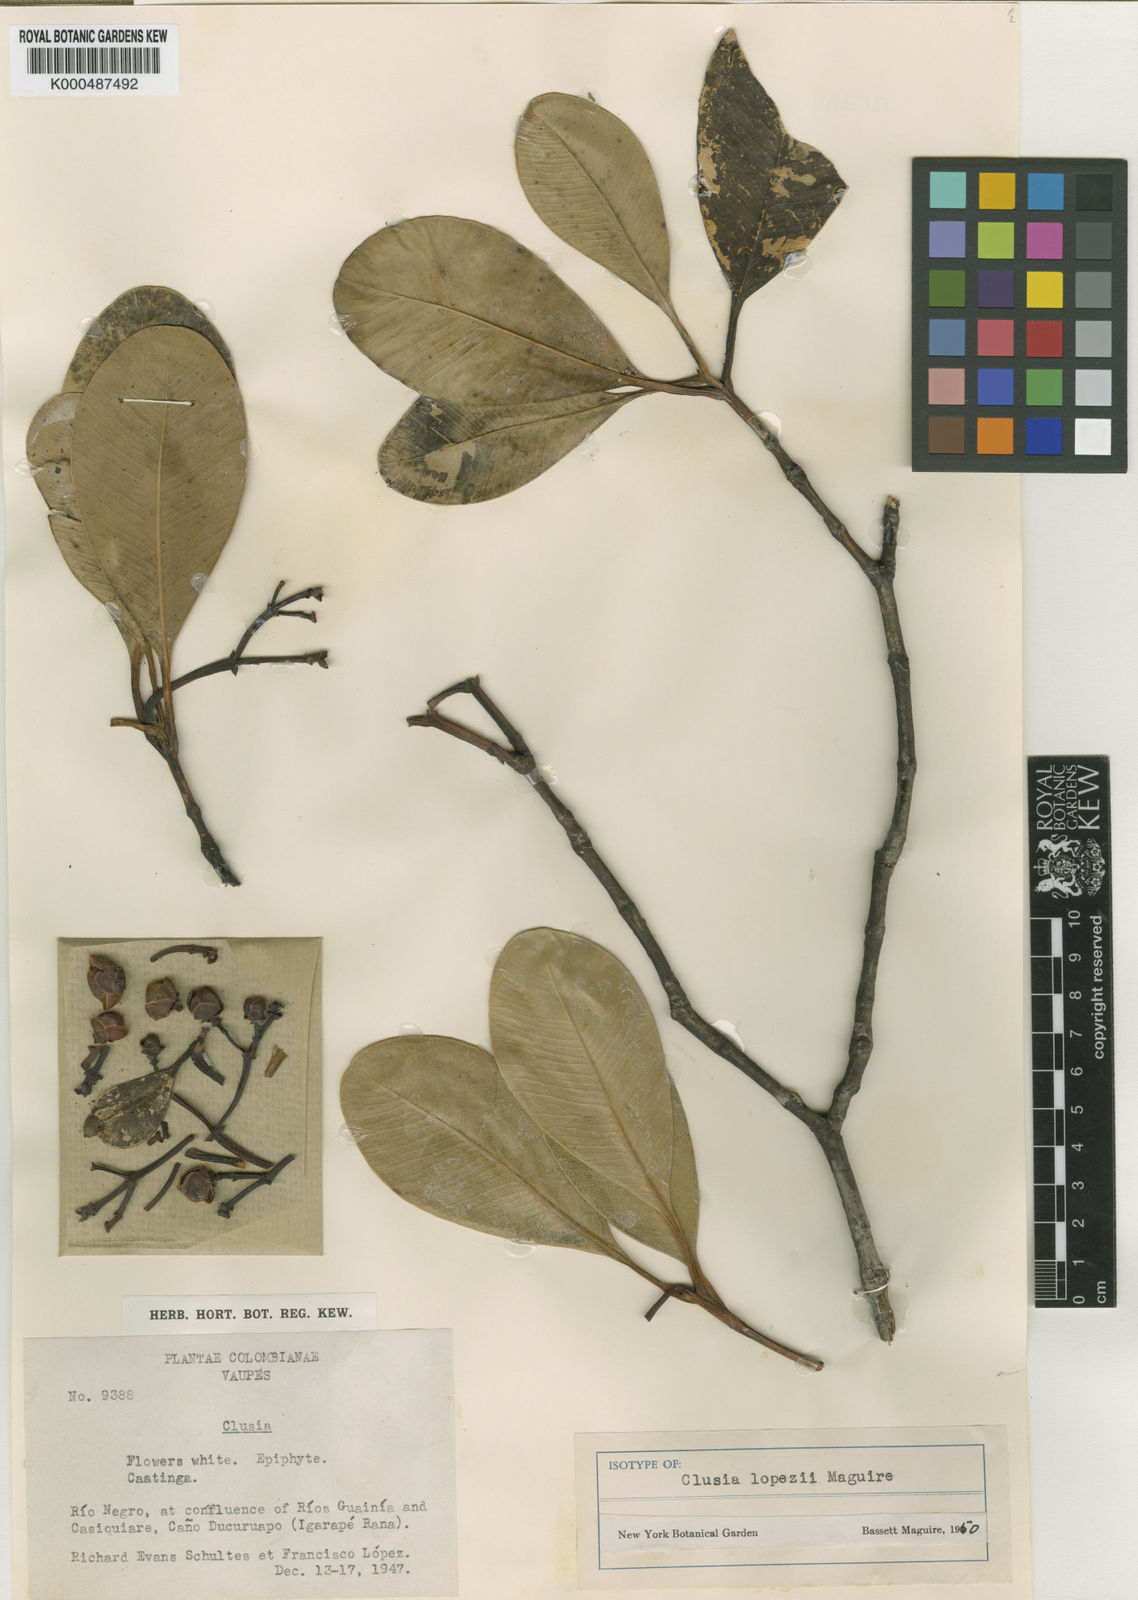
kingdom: Plantae
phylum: Tracheophyta
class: Magnoliopsida
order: Malpighiales
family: Clusiaceae
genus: Clusia
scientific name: Clusia lopezii
